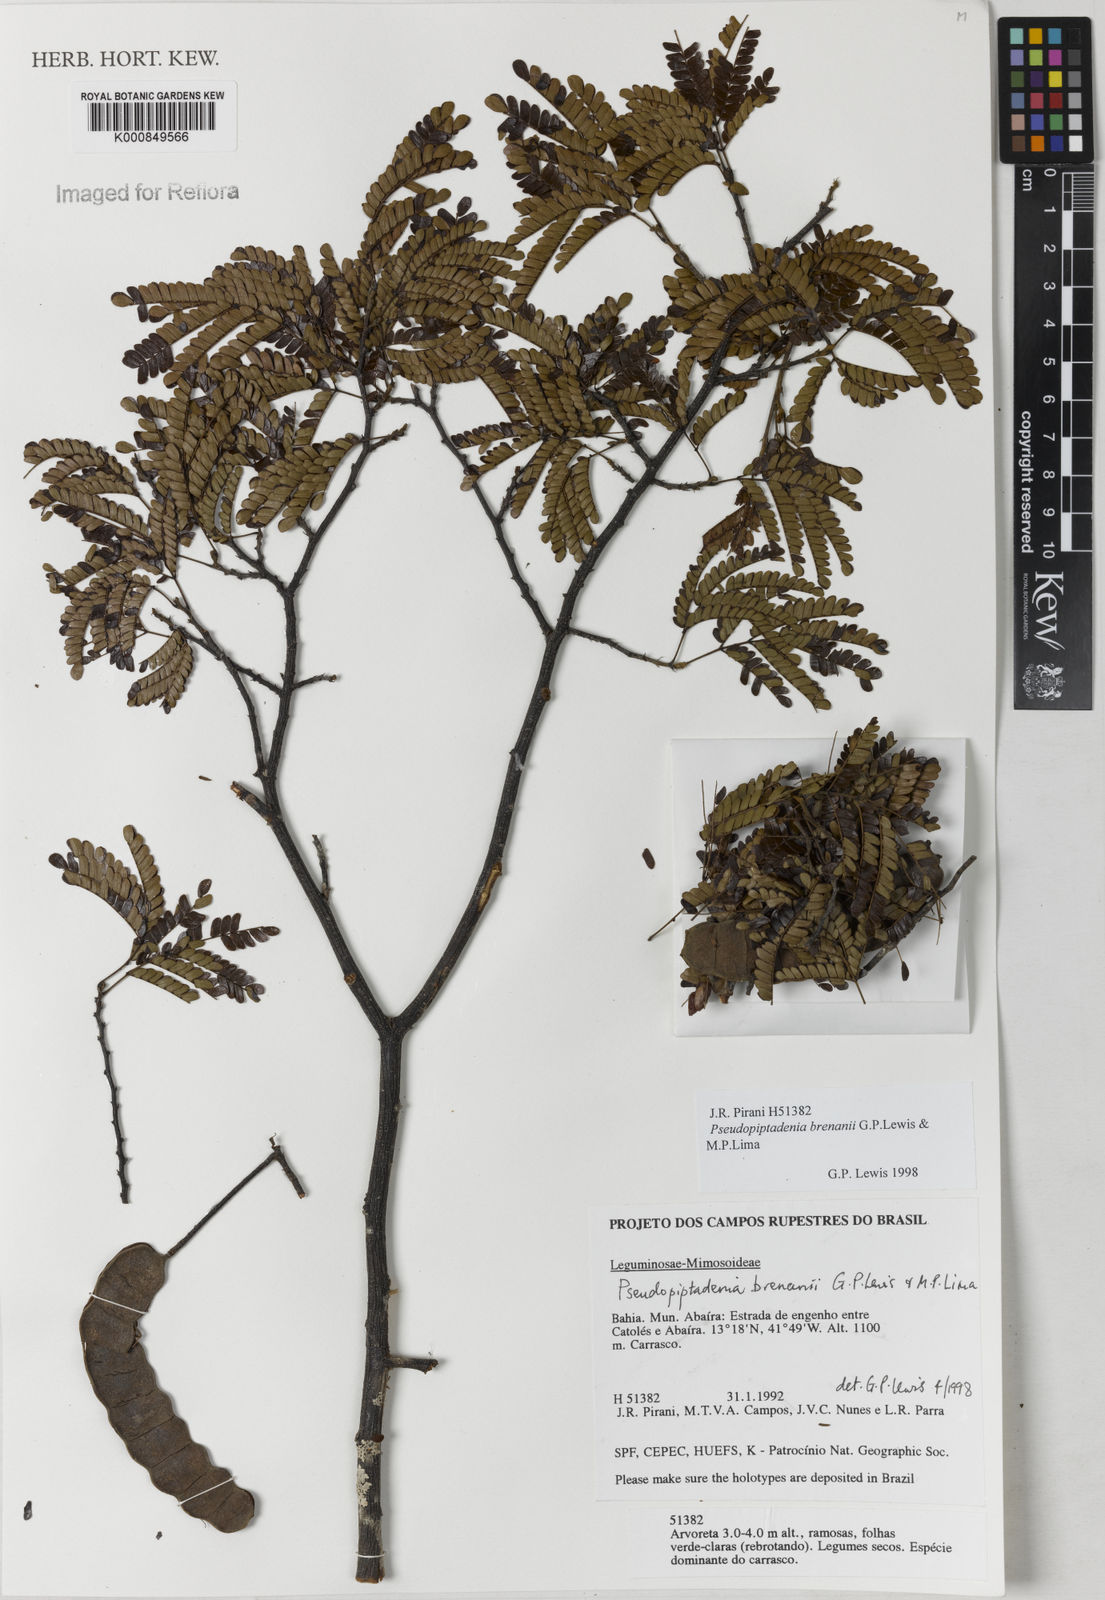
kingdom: Plantae
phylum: Tracheophyta
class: Magnoliopsida
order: Fabales
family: Fabaceae
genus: Pseudopiptadenia
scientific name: Pseudopiptadenia brenanii
